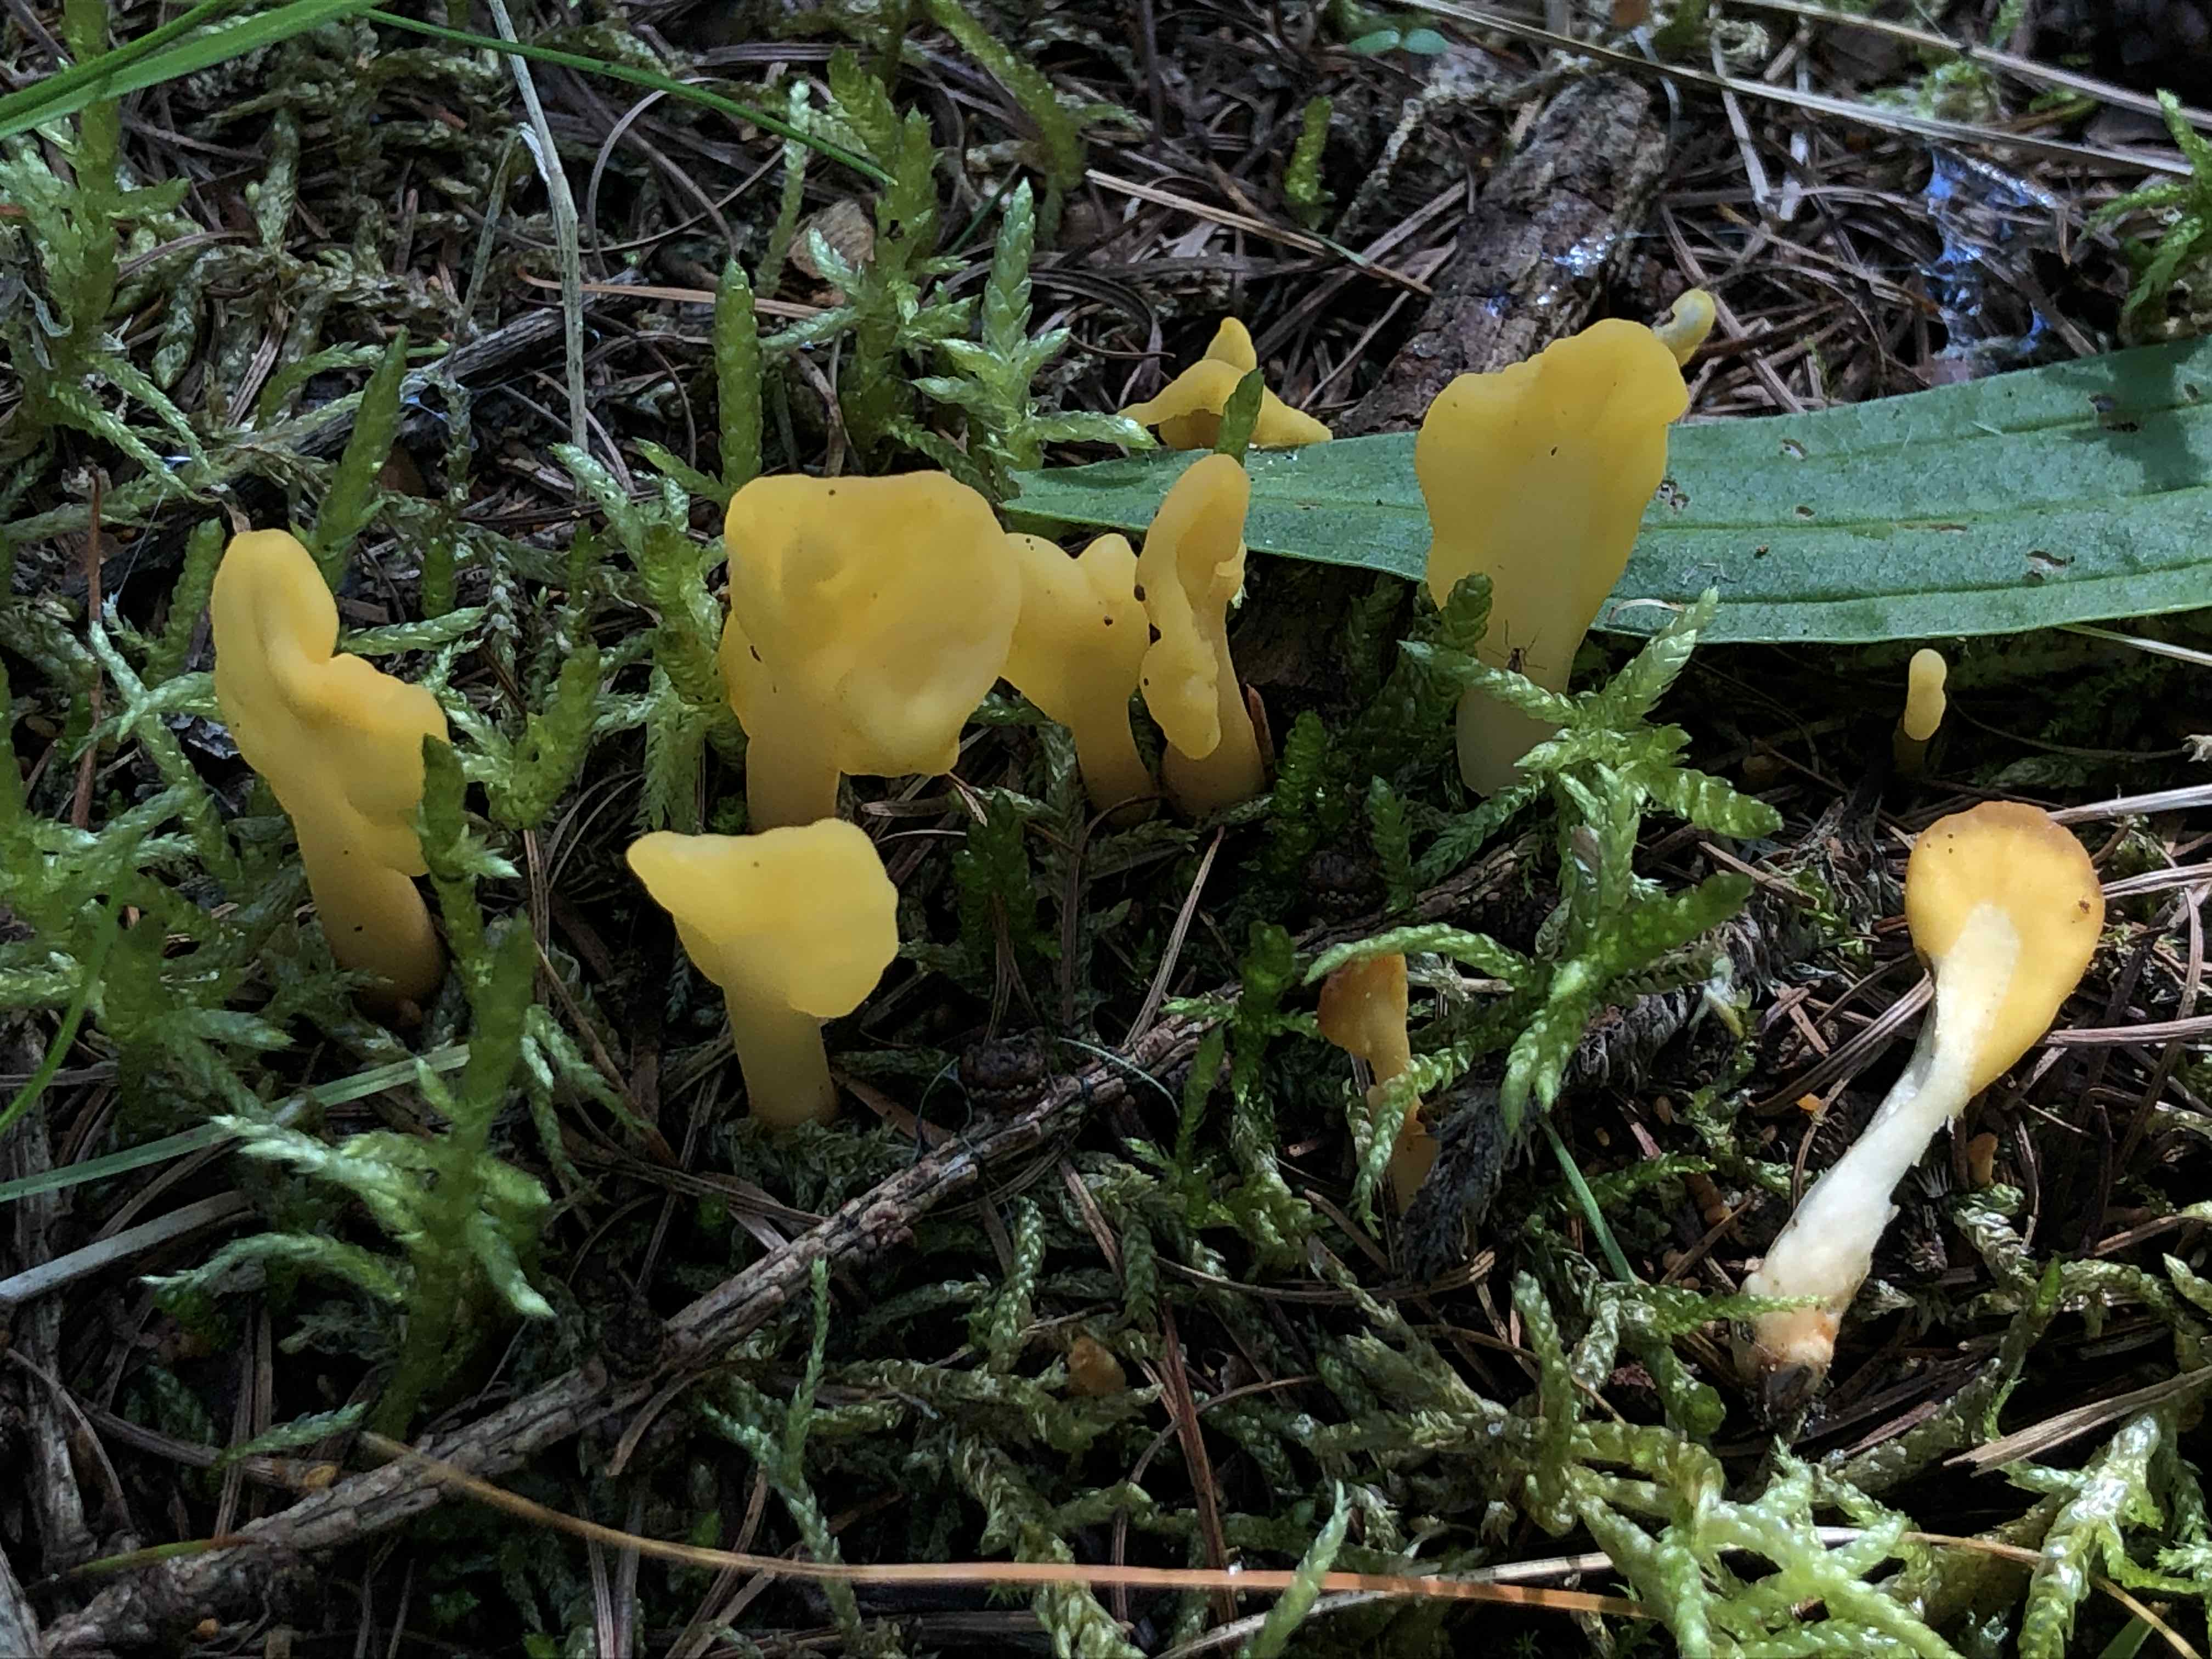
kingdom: Fungi
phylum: Ascomycota
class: Leotiomycetes
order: Rhytismatales
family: Cudoniaceae
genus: Spathularia
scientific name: Spathularia flavida
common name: gul spatelsvamp
